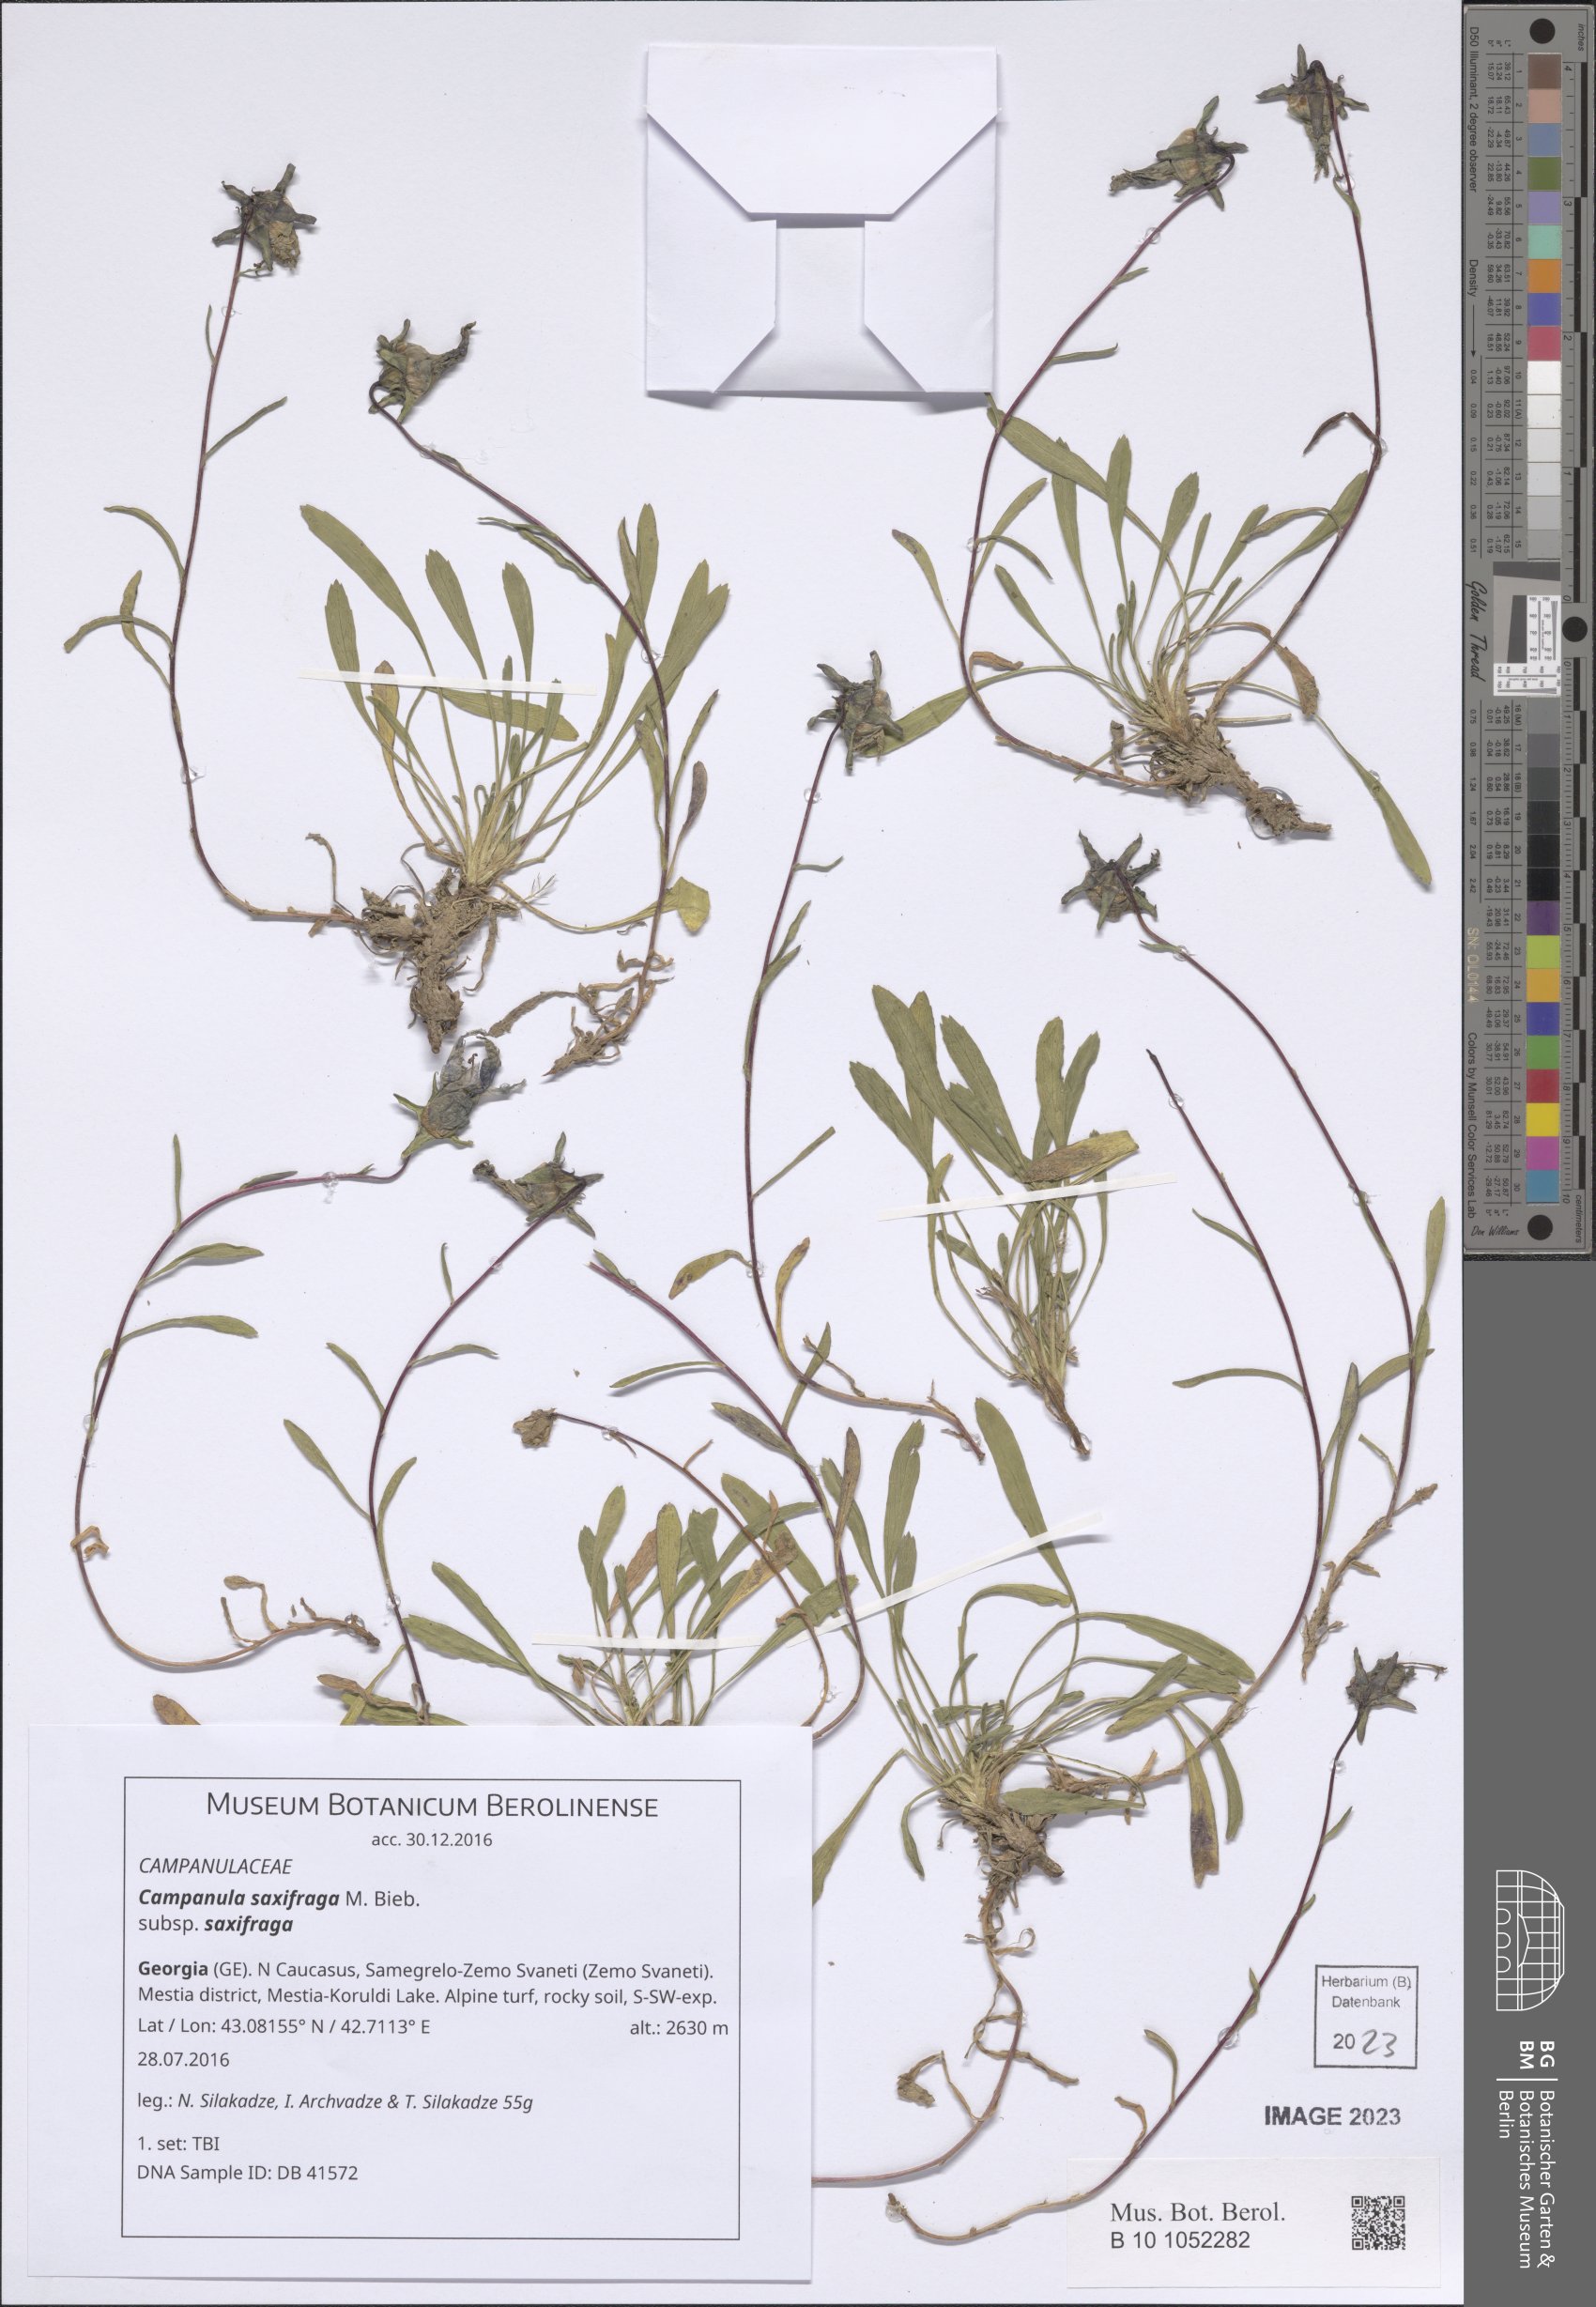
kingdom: Plantae
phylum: Tracheophyta
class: Magnoliopsida
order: Asterales
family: Campanulaceae
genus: Campanula
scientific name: Campanula saxifraga
